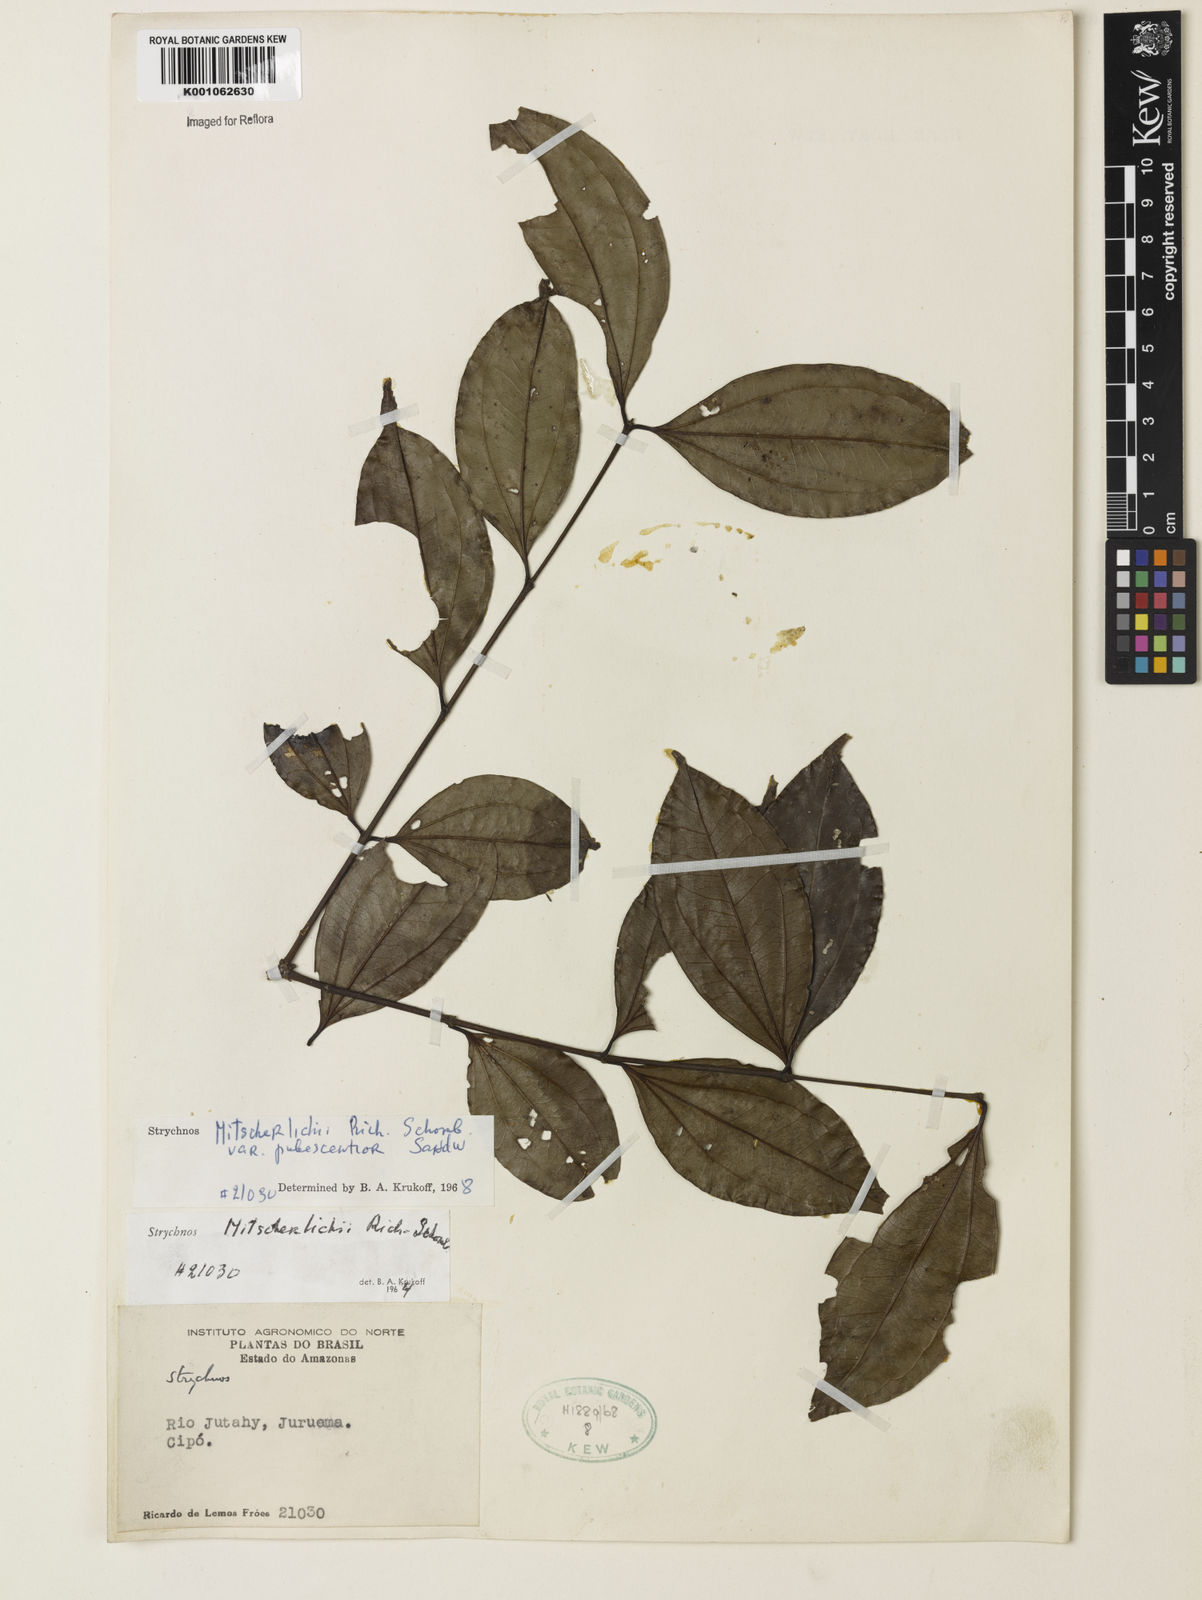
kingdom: Plantae
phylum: Tracheophyta
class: Magnoliopsida
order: Gentianales
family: Loganiaceae
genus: Strychnos
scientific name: Strychnos mitscherlichii
